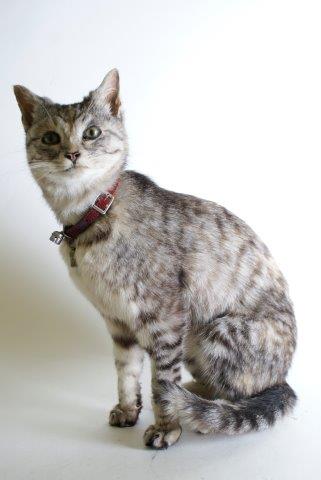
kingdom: Animalia
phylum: Chordata
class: Mammalia
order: Carnivora
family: Felidae
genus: Felis
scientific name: Felis catus
